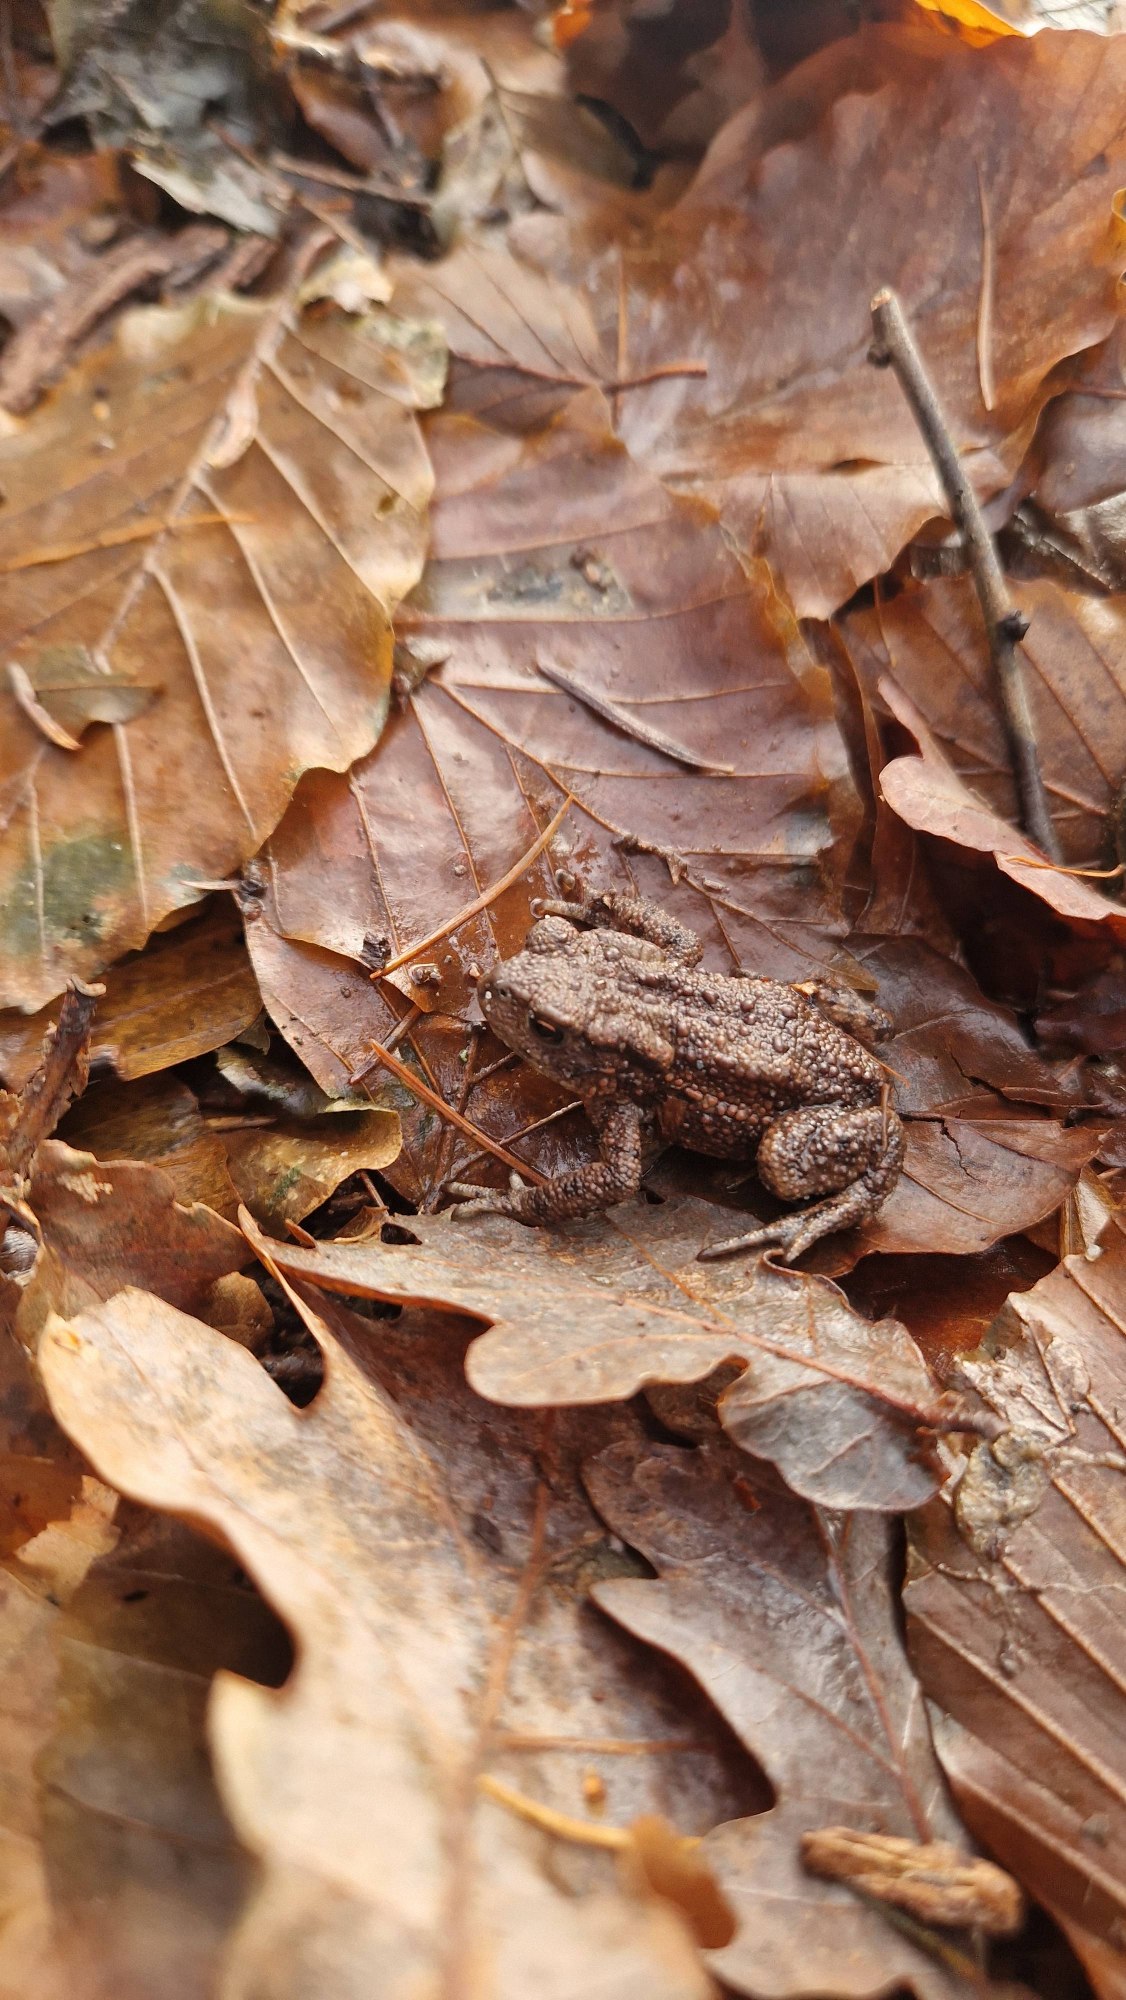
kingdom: Animalia
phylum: Chordata
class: Amphibia
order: Anura
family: Bufonidae
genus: Bufo
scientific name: Bufo bufo
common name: Skrubtudse
